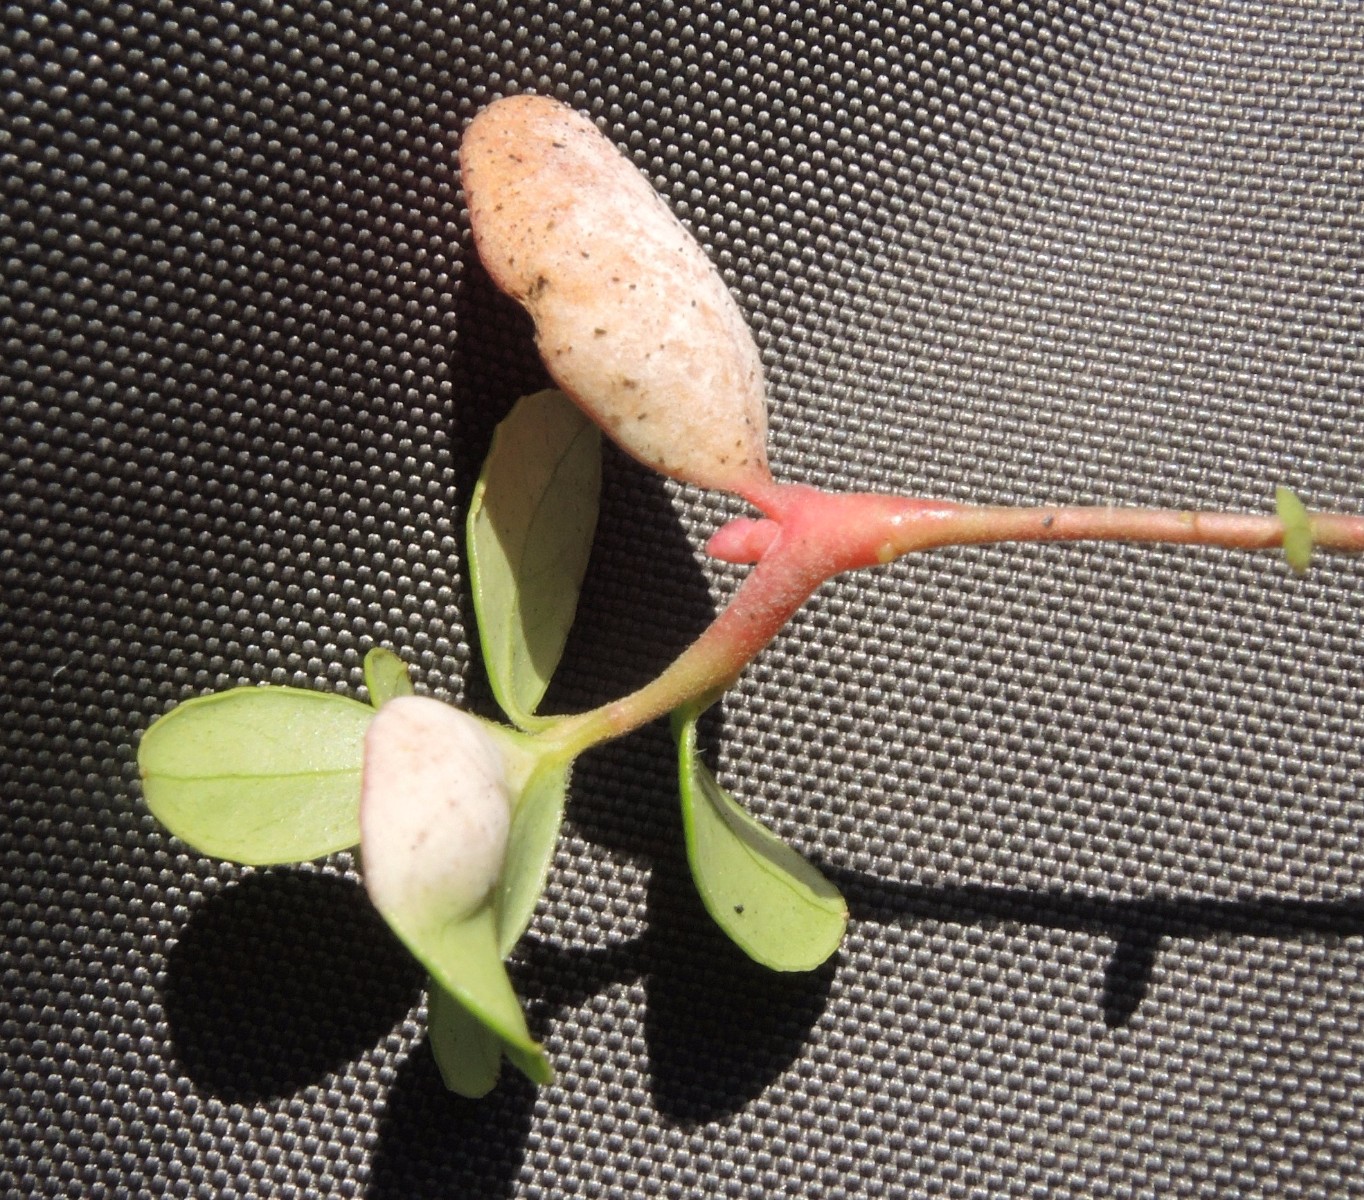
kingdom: Fungi
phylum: Basidiomycota
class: Exobasidiomycetes
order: Exobasidiales
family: Exobasidiaceae
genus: Exobasidium
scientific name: Exobasidium vaccinii
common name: tyttebærblad-bøllesvamp
